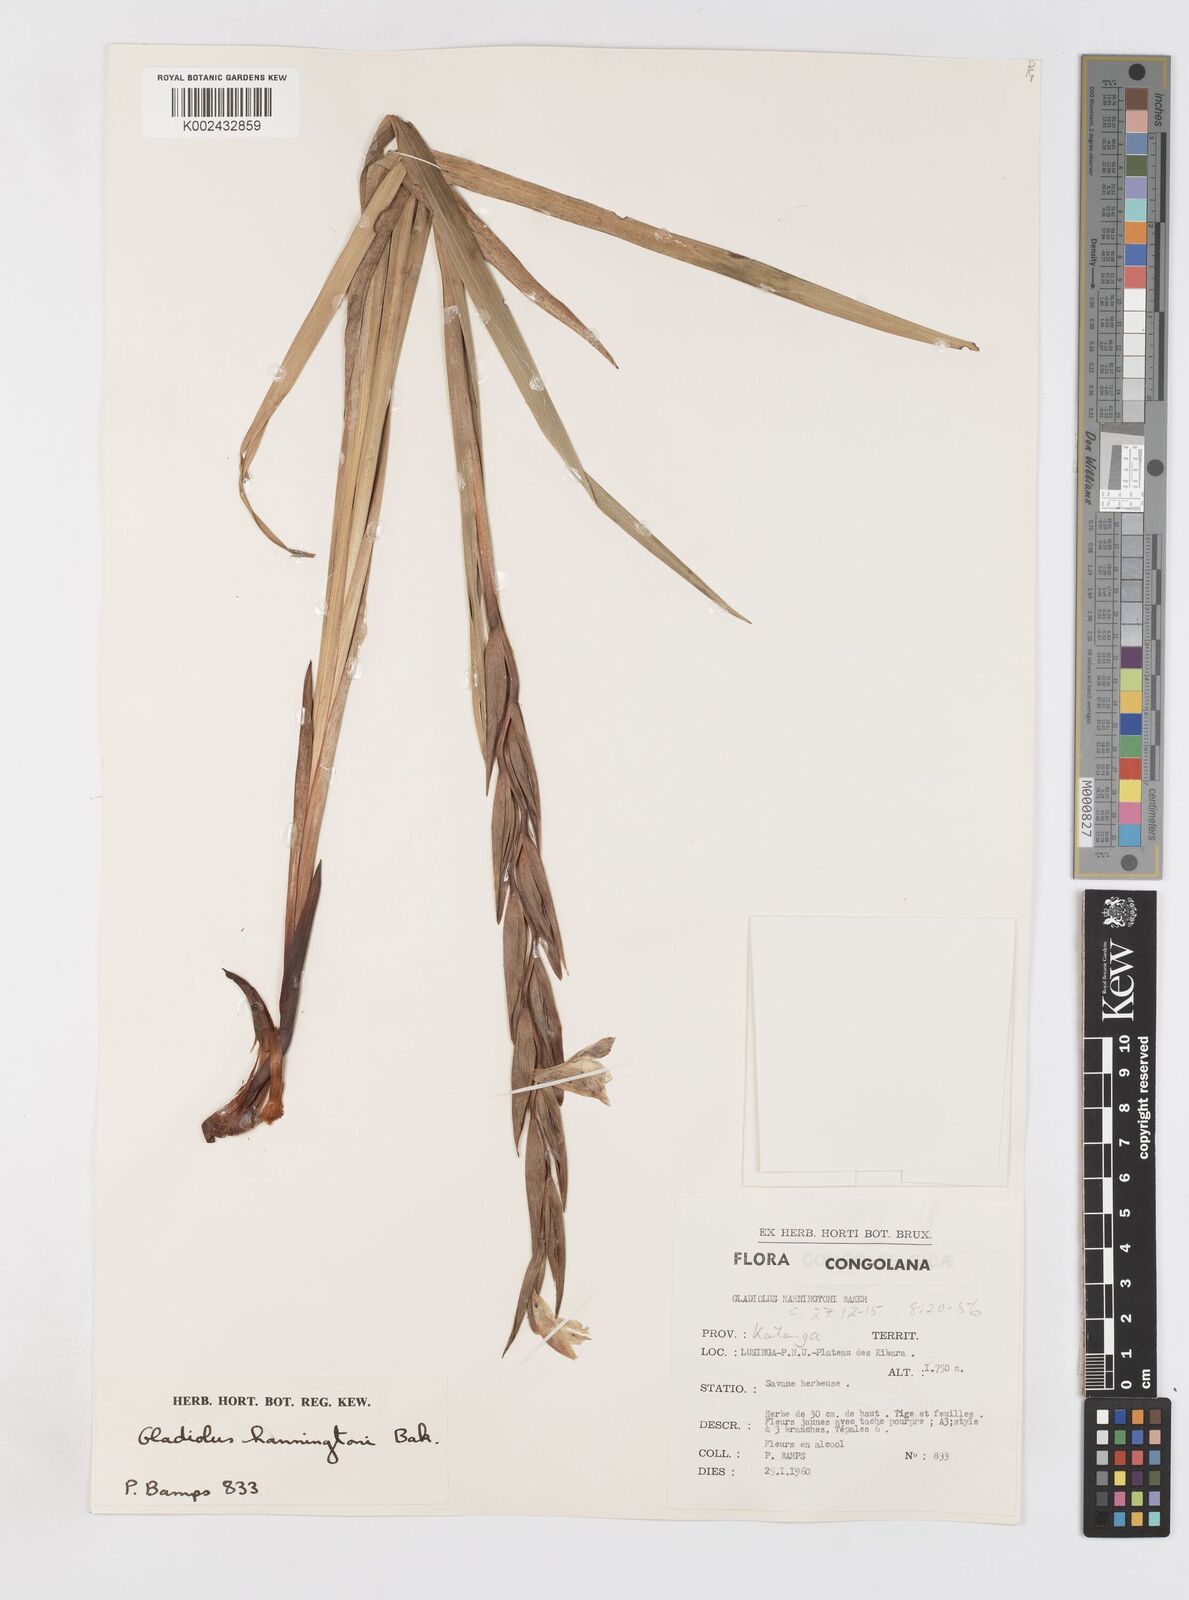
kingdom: Plantae
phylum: Tracheophyta
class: Liliopsida
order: Asparagales
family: Iridaceae
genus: Gladiolus
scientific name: Gladiolus gregarius
